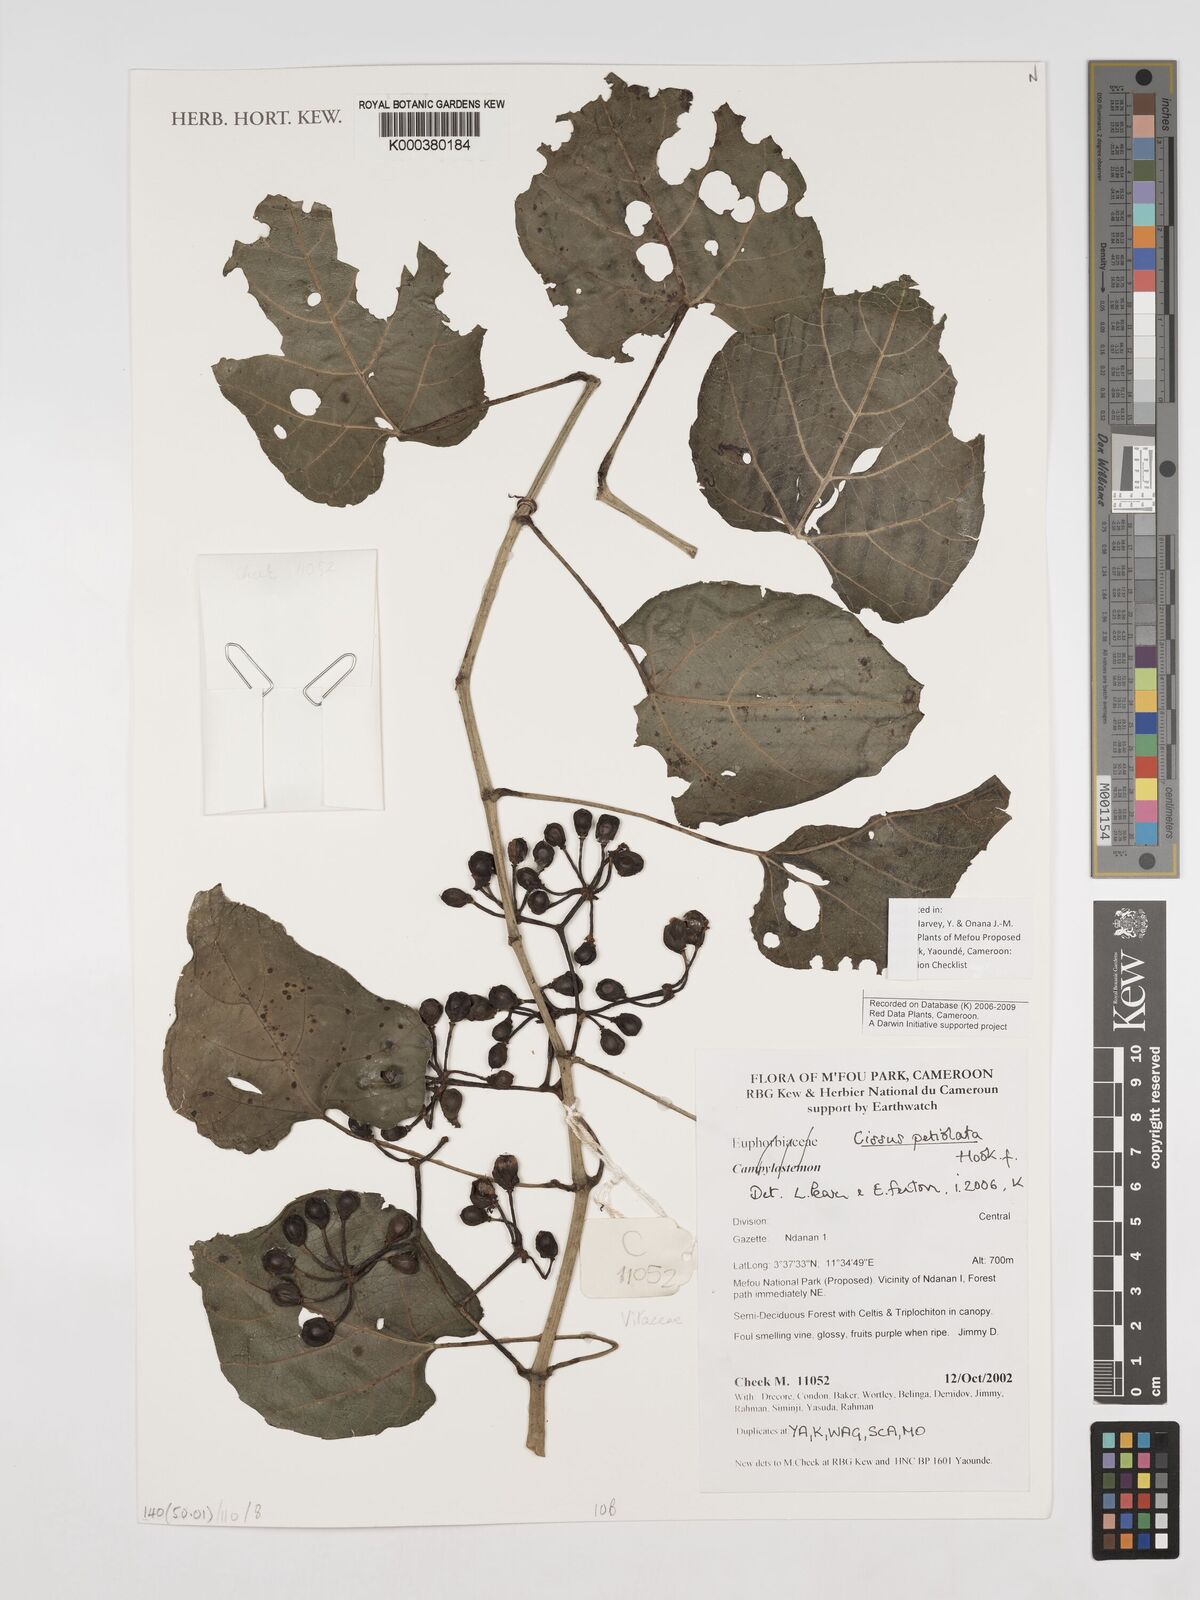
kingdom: Plantae
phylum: Tracheophyta
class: Magnoliopsida
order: Vitales
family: Vitaceae
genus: Cissus
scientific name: Cissus petiolata
